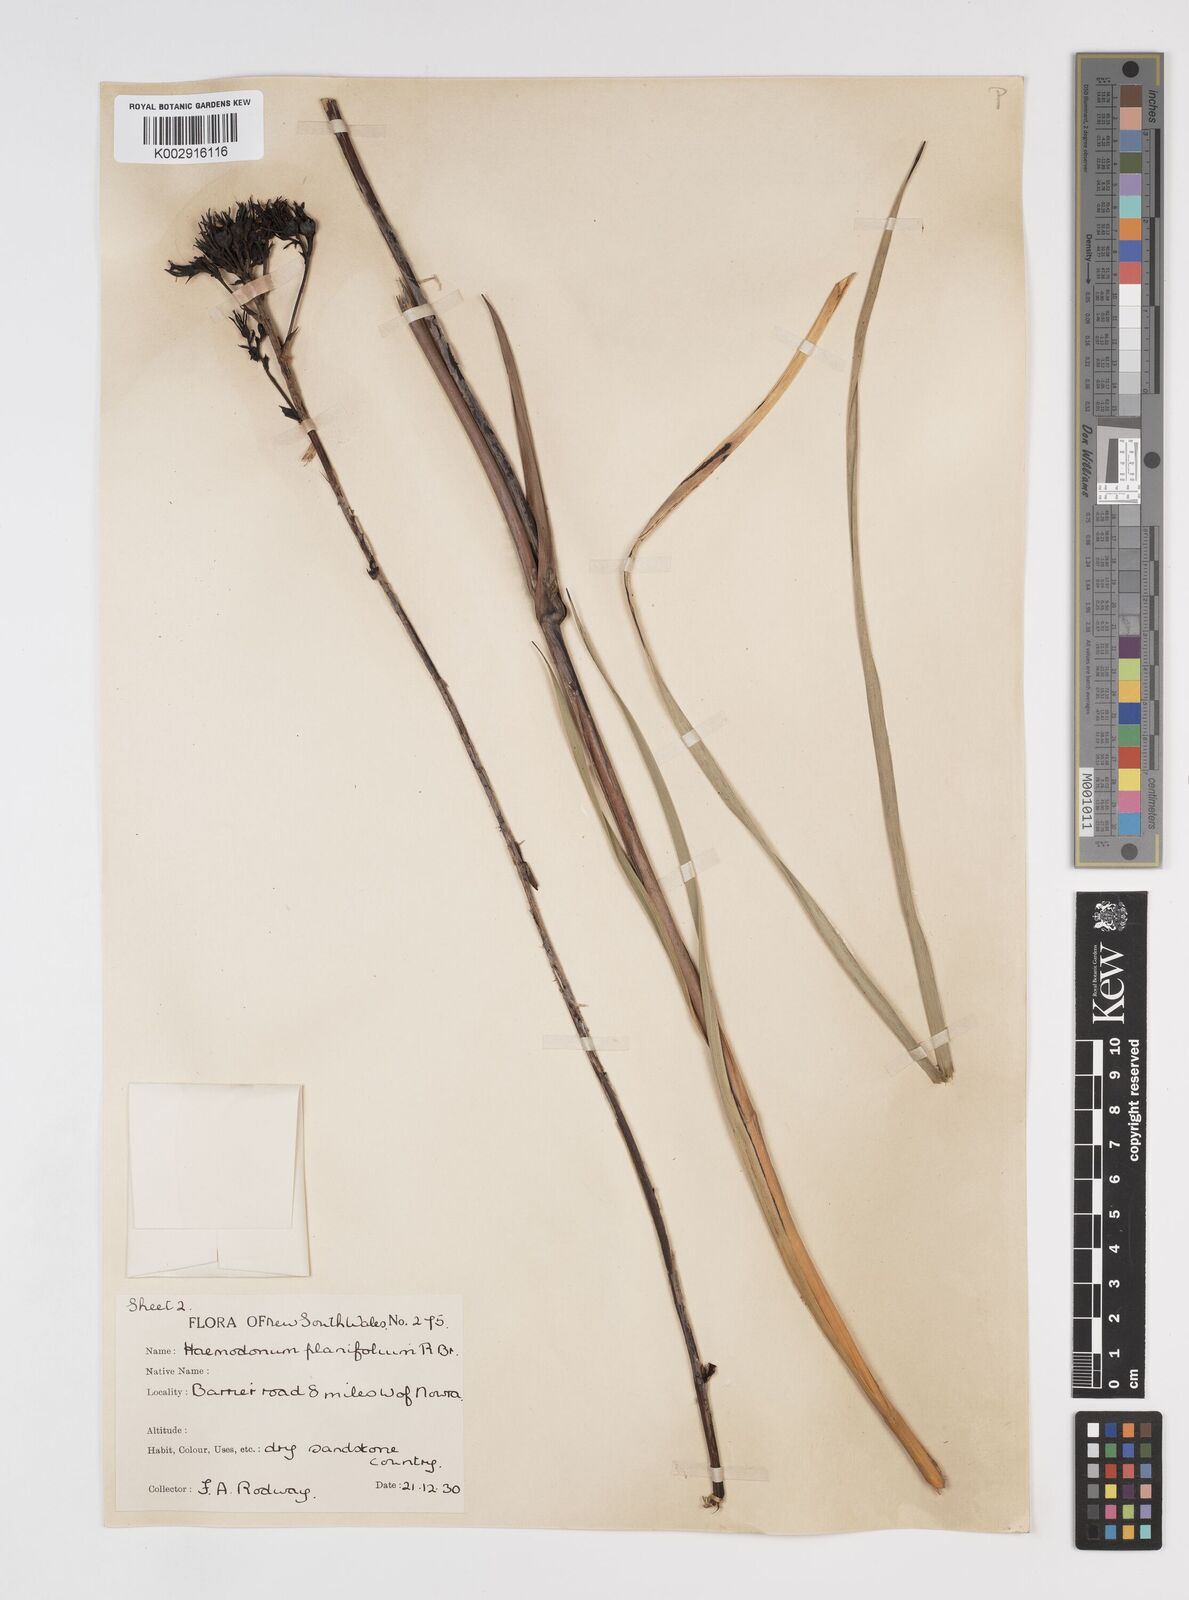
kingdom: Plantae
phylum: Tracheophyta
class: Liliopsida
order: Commelinales
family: Haemodoraceae
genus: Haemodorum
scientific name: Haemodorum planifolium
